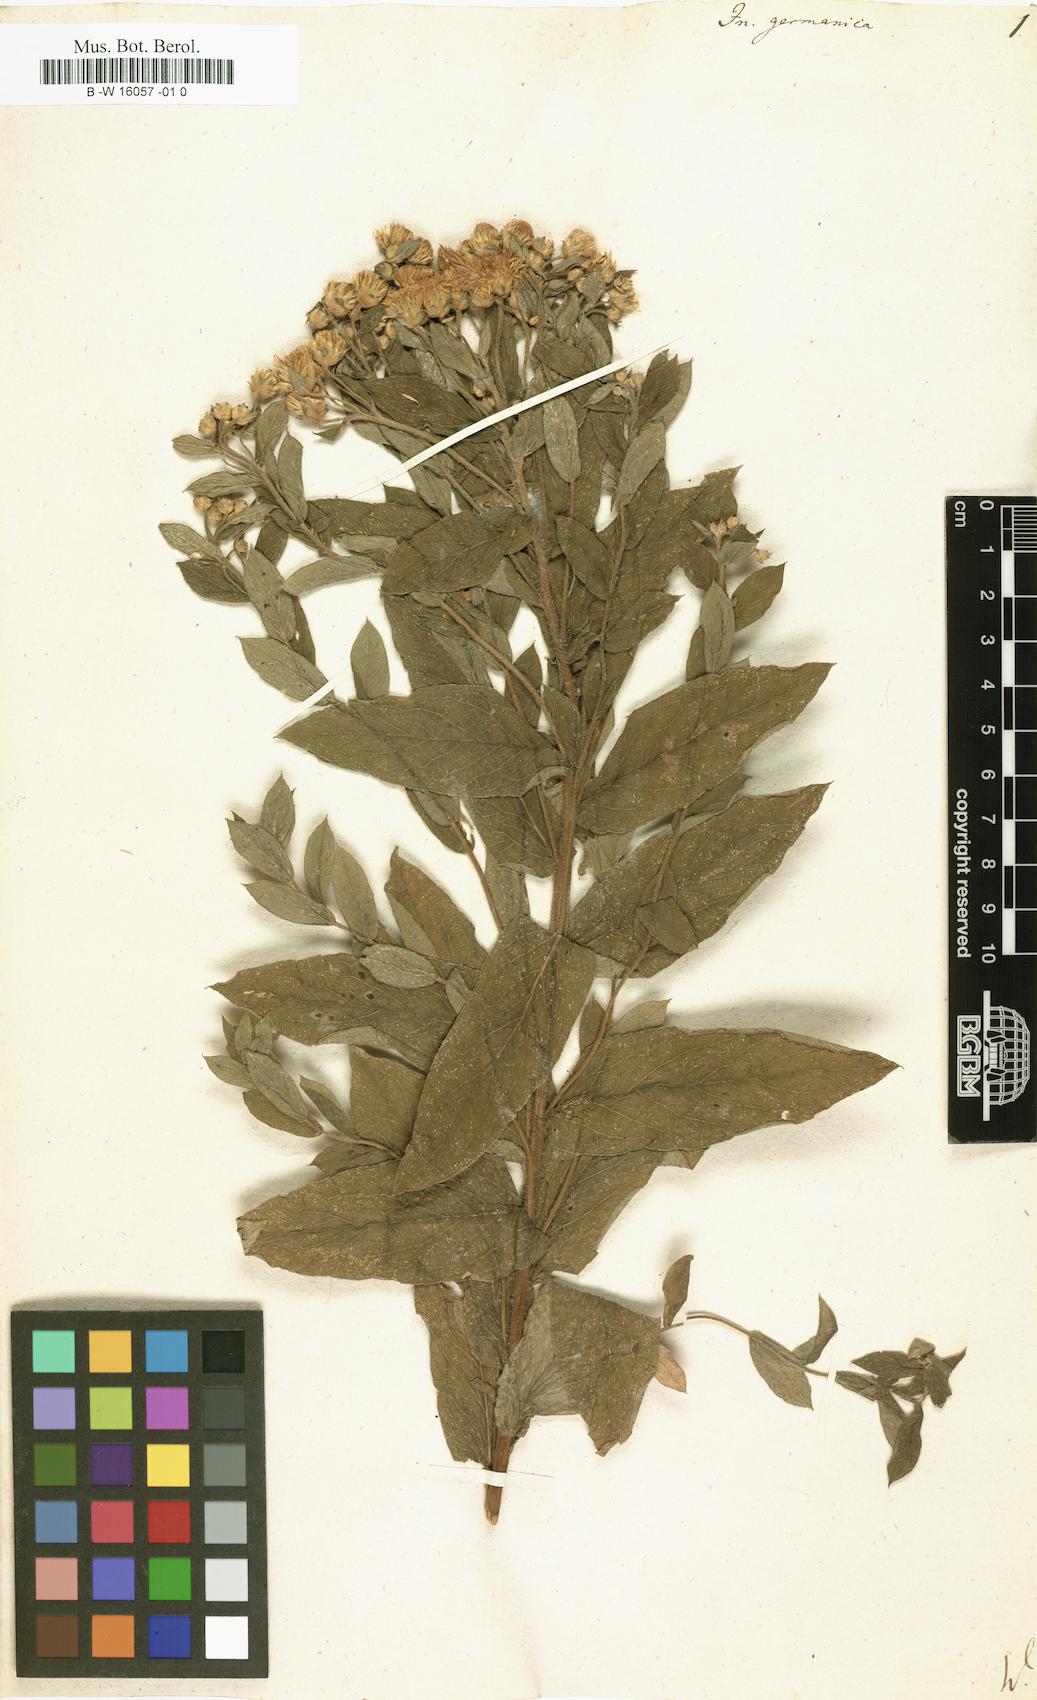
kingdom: Plantae
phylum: Tracheophyta
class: Magnoliopsida
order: Asterales
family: Asteraceae
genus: Pentanema
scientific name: Pentanema germanicum
